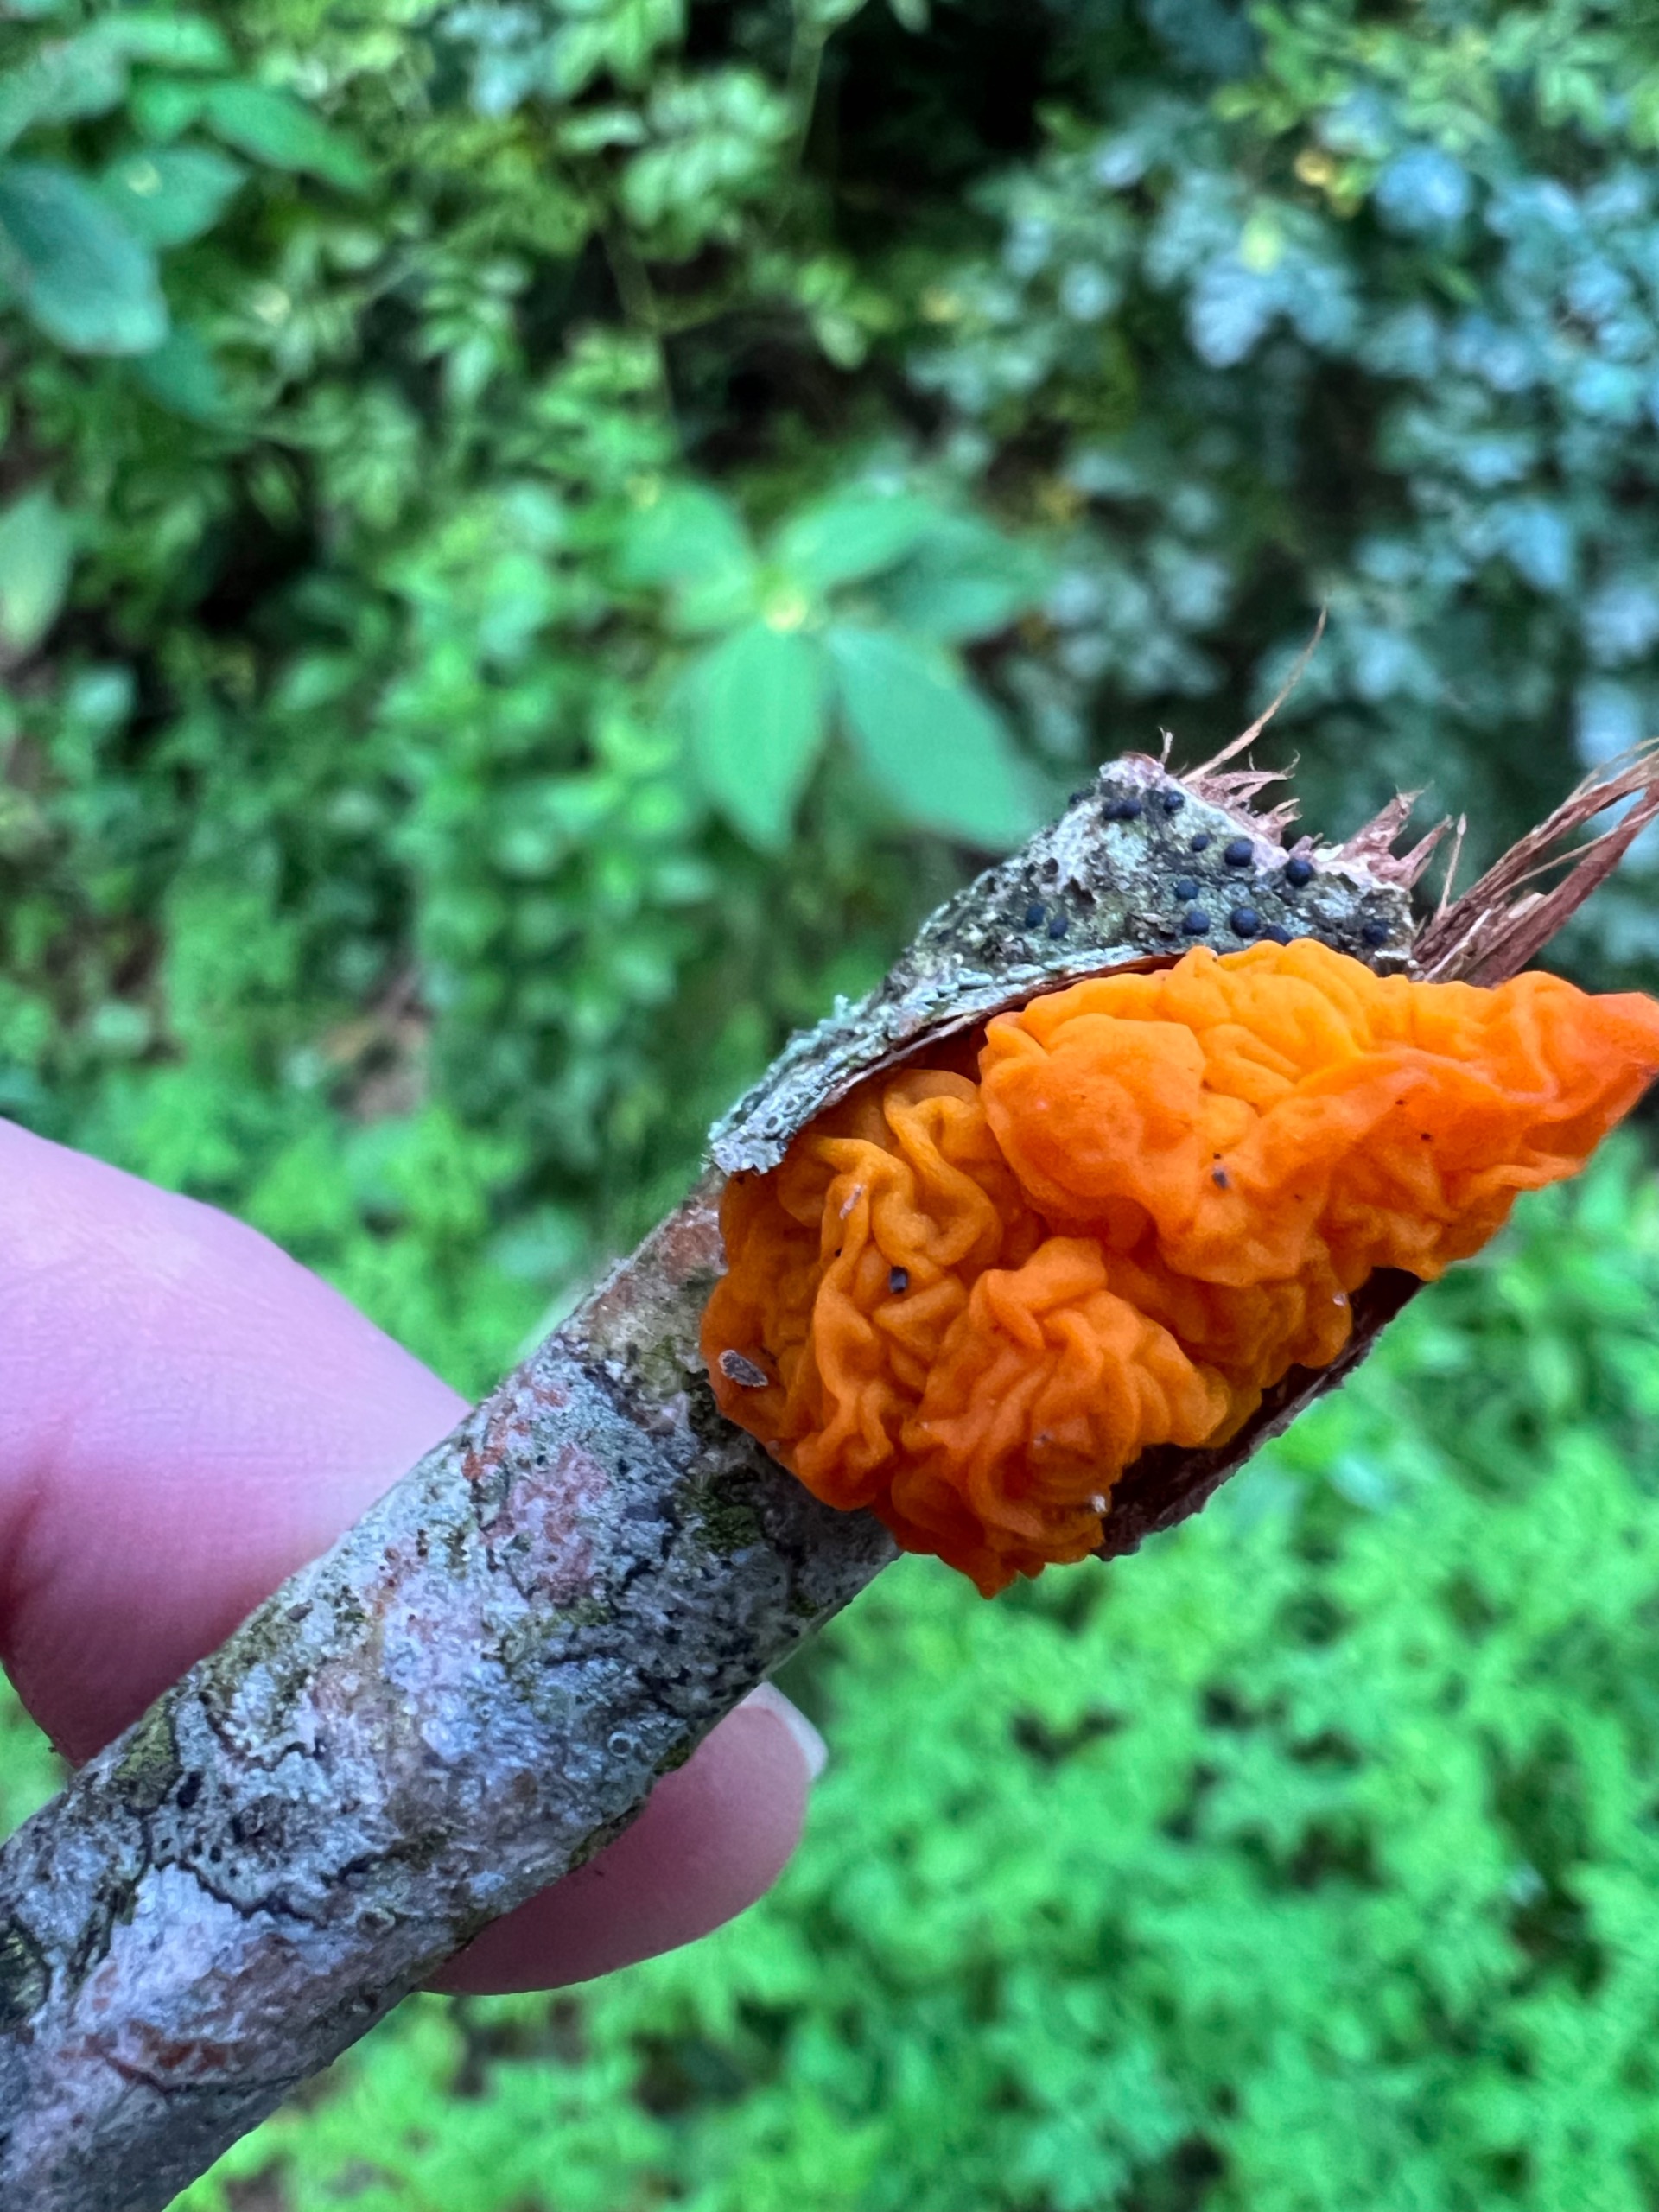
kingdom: Fungi
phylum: Basidiomycota
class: Tremellomycetes
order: Tremellales
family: Tremellaceae
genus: Tremella
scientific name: Tremella mesenterica
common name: Gul bævresvamp
